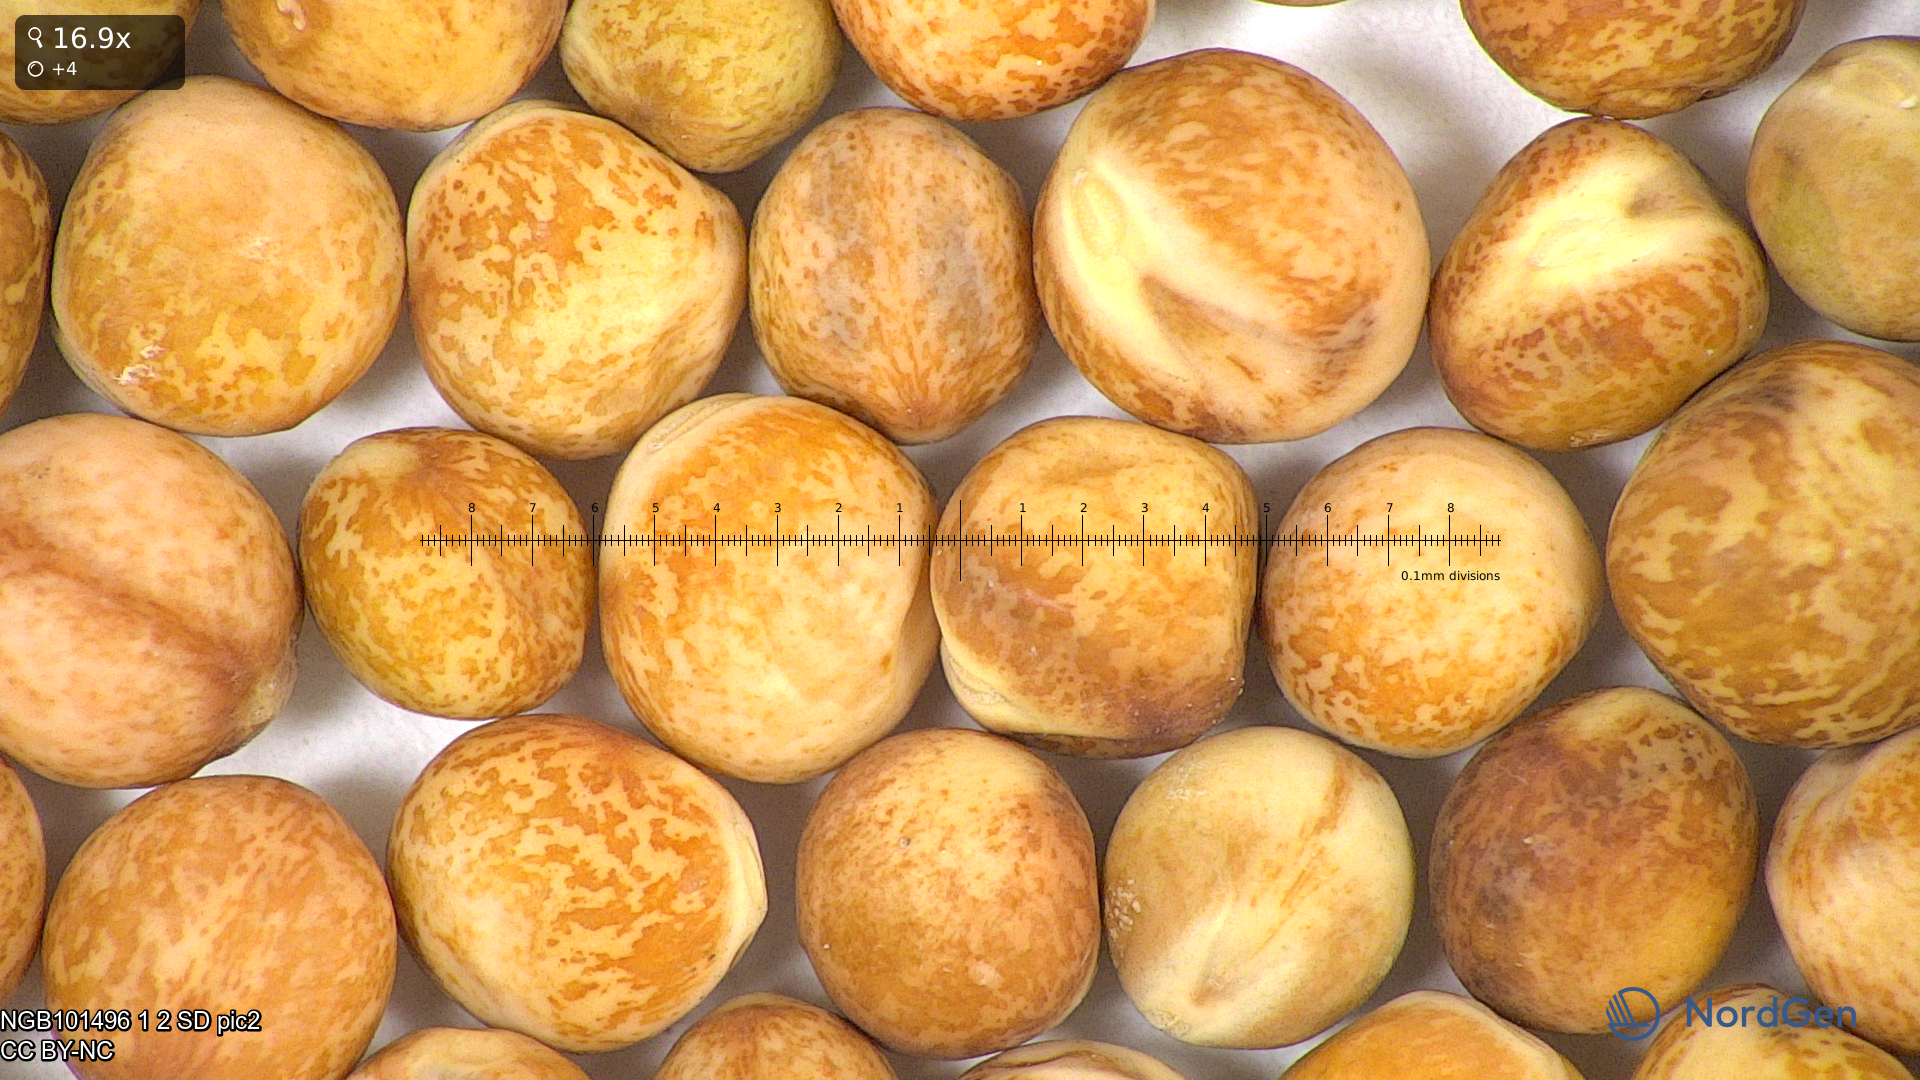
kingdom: Plantae
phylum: Tracheophyta
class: Magnoliopsida
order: Fabales
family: Fabaceae
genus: Lathyrus
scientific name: Lathyrus oleraceus
